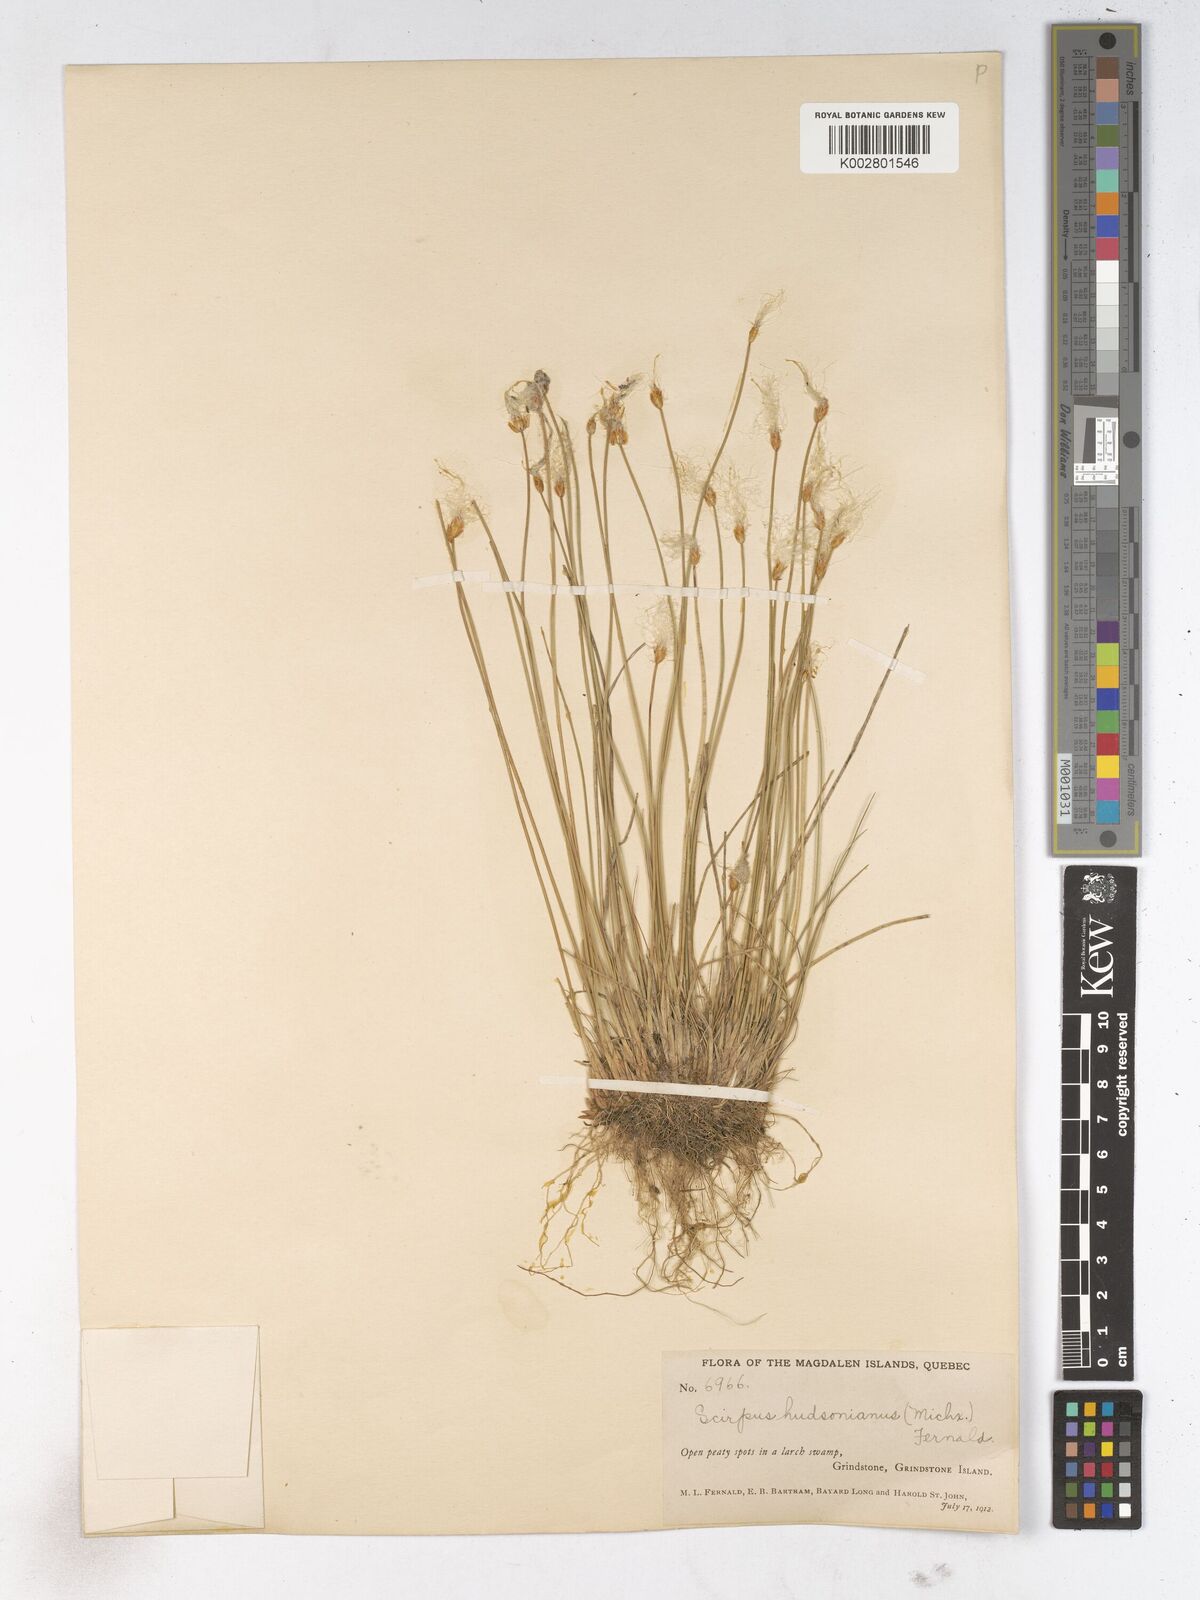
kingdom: Plantae
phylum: Tracheophyta
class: Liliopsida
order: Poales
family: Cyperaceae
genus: Trichophorum
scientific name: Trichophorum alpinum
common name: Alpine bulrush
